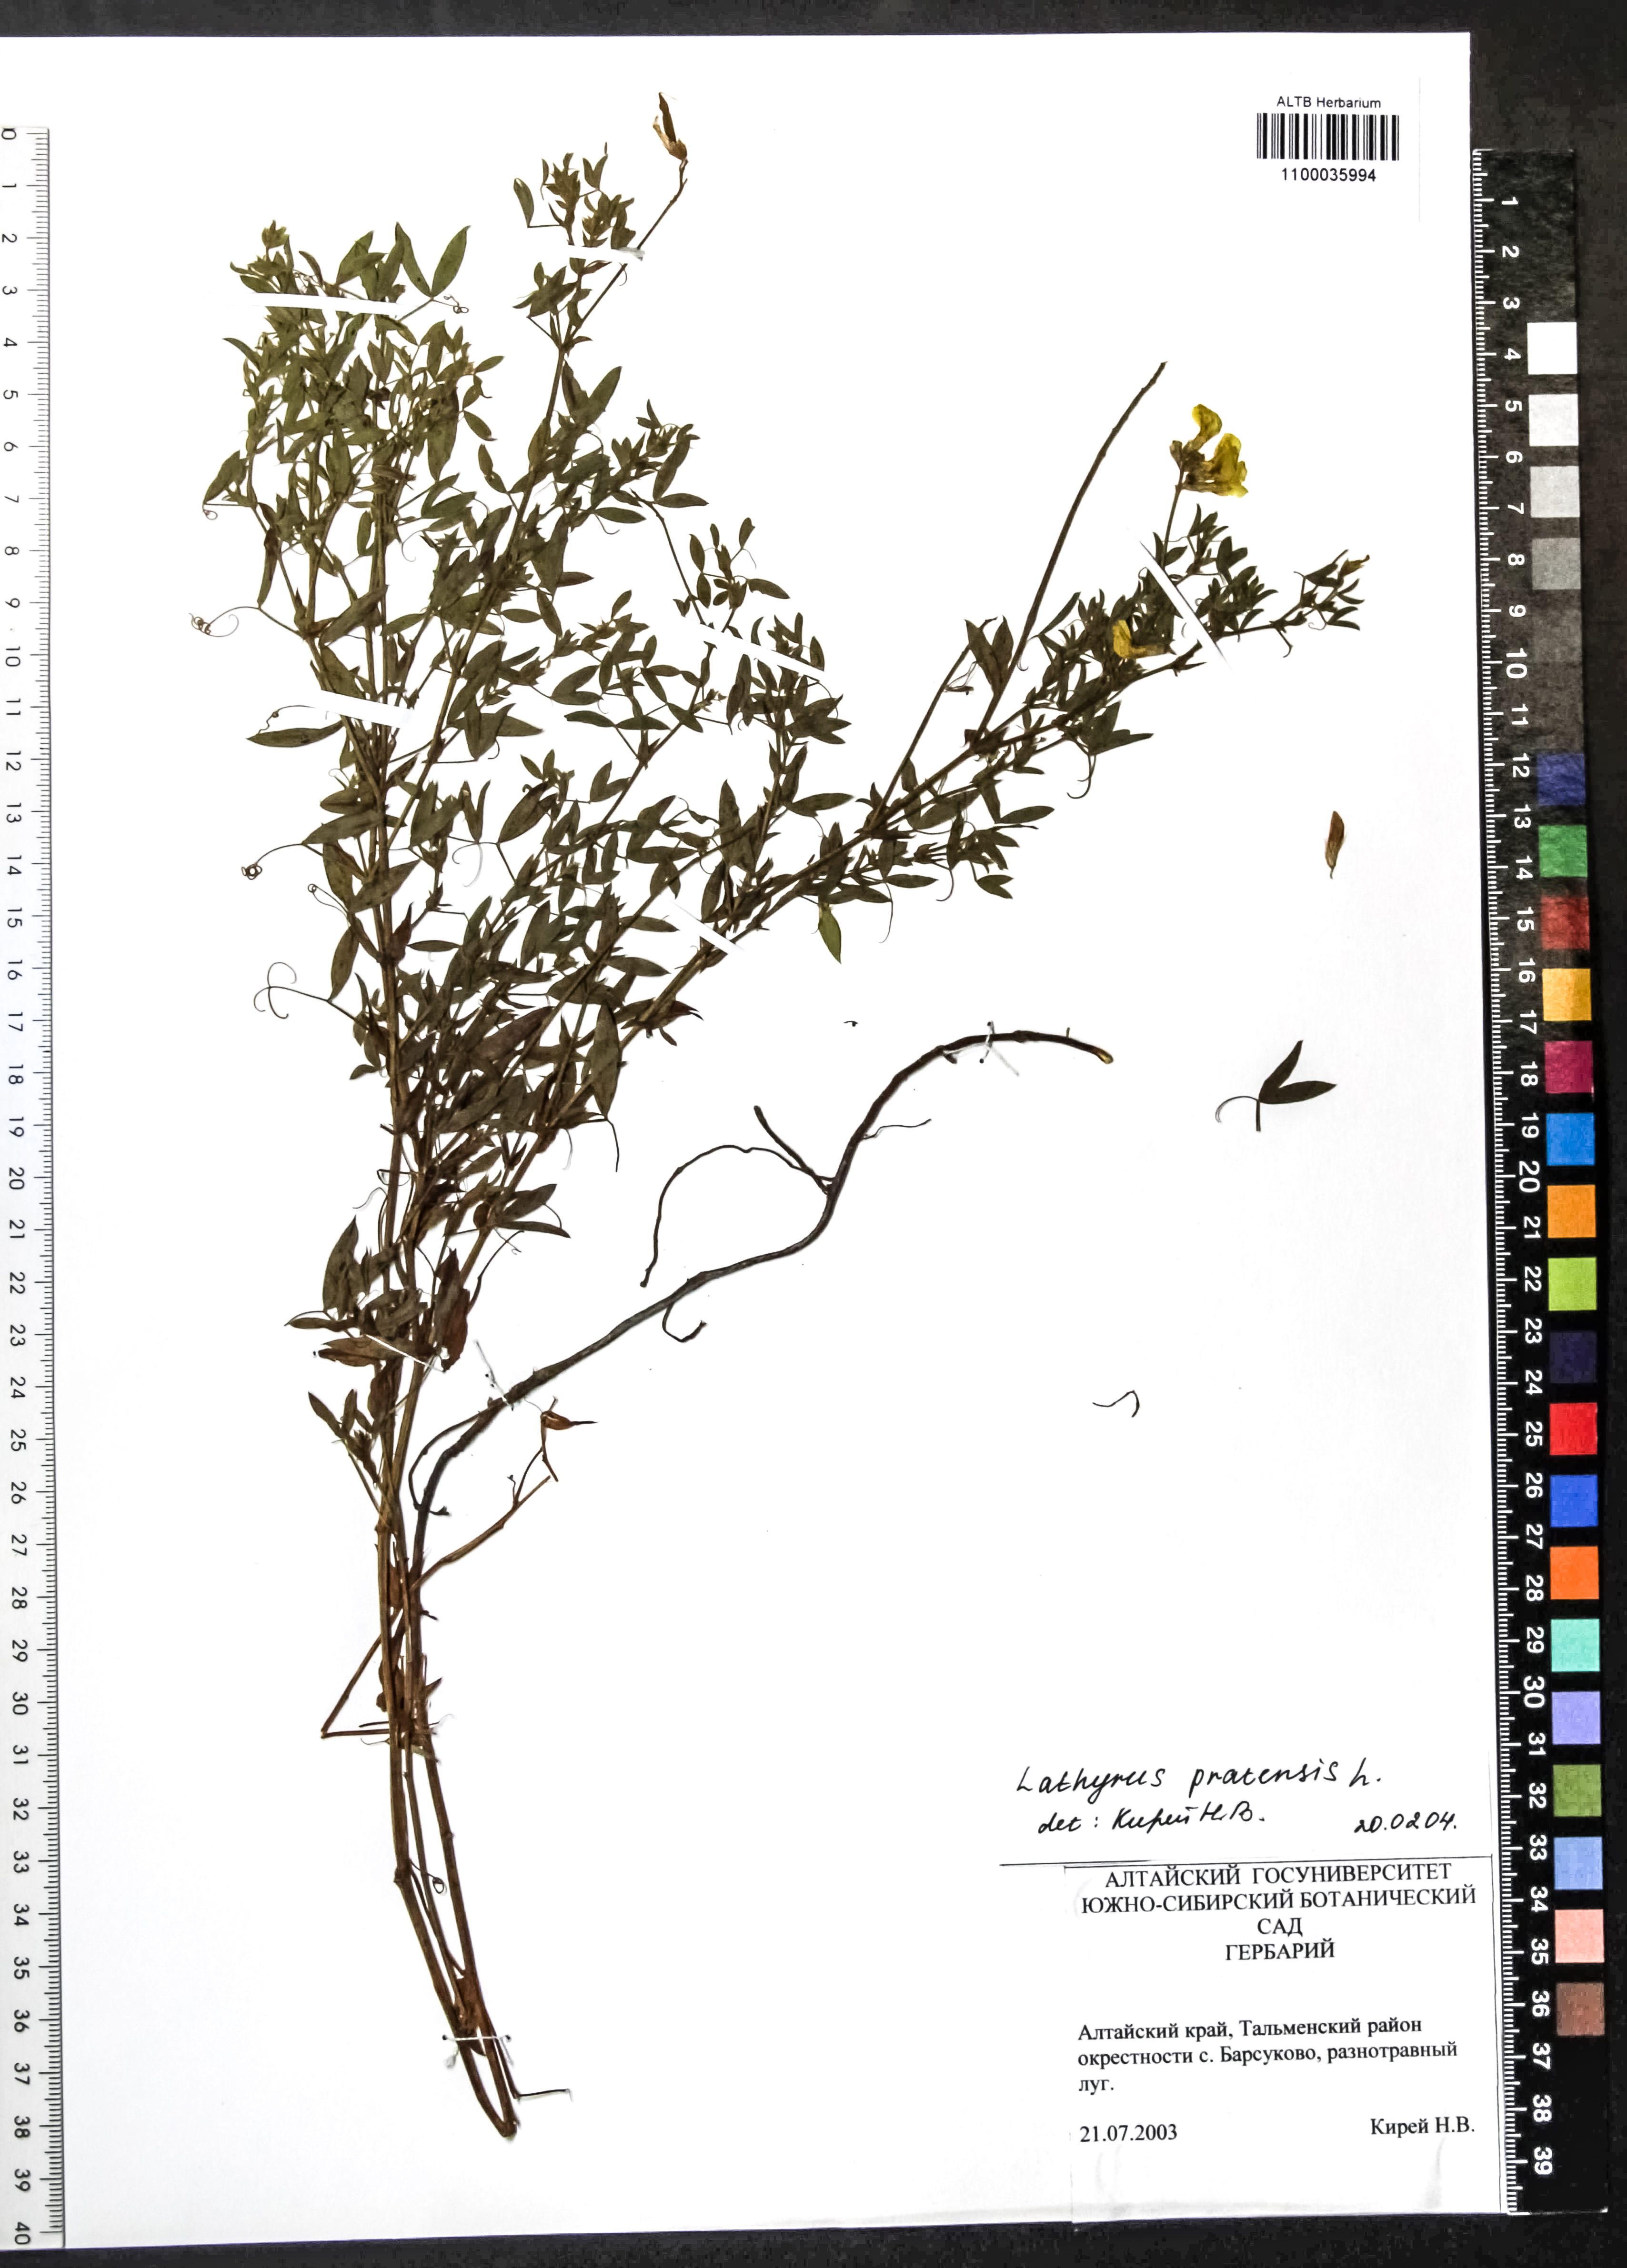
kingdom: Plantae
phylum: Tracheophyta
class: Magnoliopsida
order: Fabales
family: Fabaceae
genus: Lathyrus
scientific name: Lathyrus pratensis
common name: Meadow vetchling
